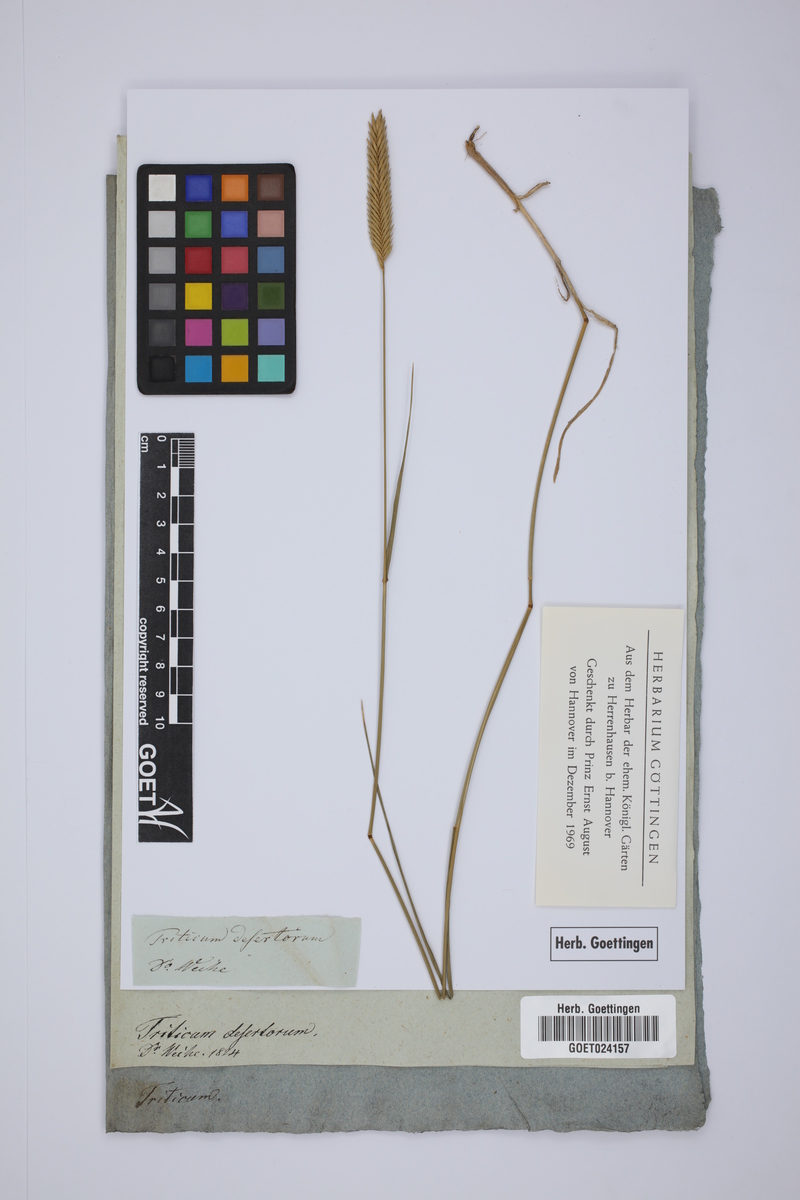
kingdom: Plantae
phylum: Tracheophyta
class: Liliopsida
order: Poales
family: Poaceae
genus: Agropyron
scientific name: Agropyron desertorum
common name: Desert wheatgrass
